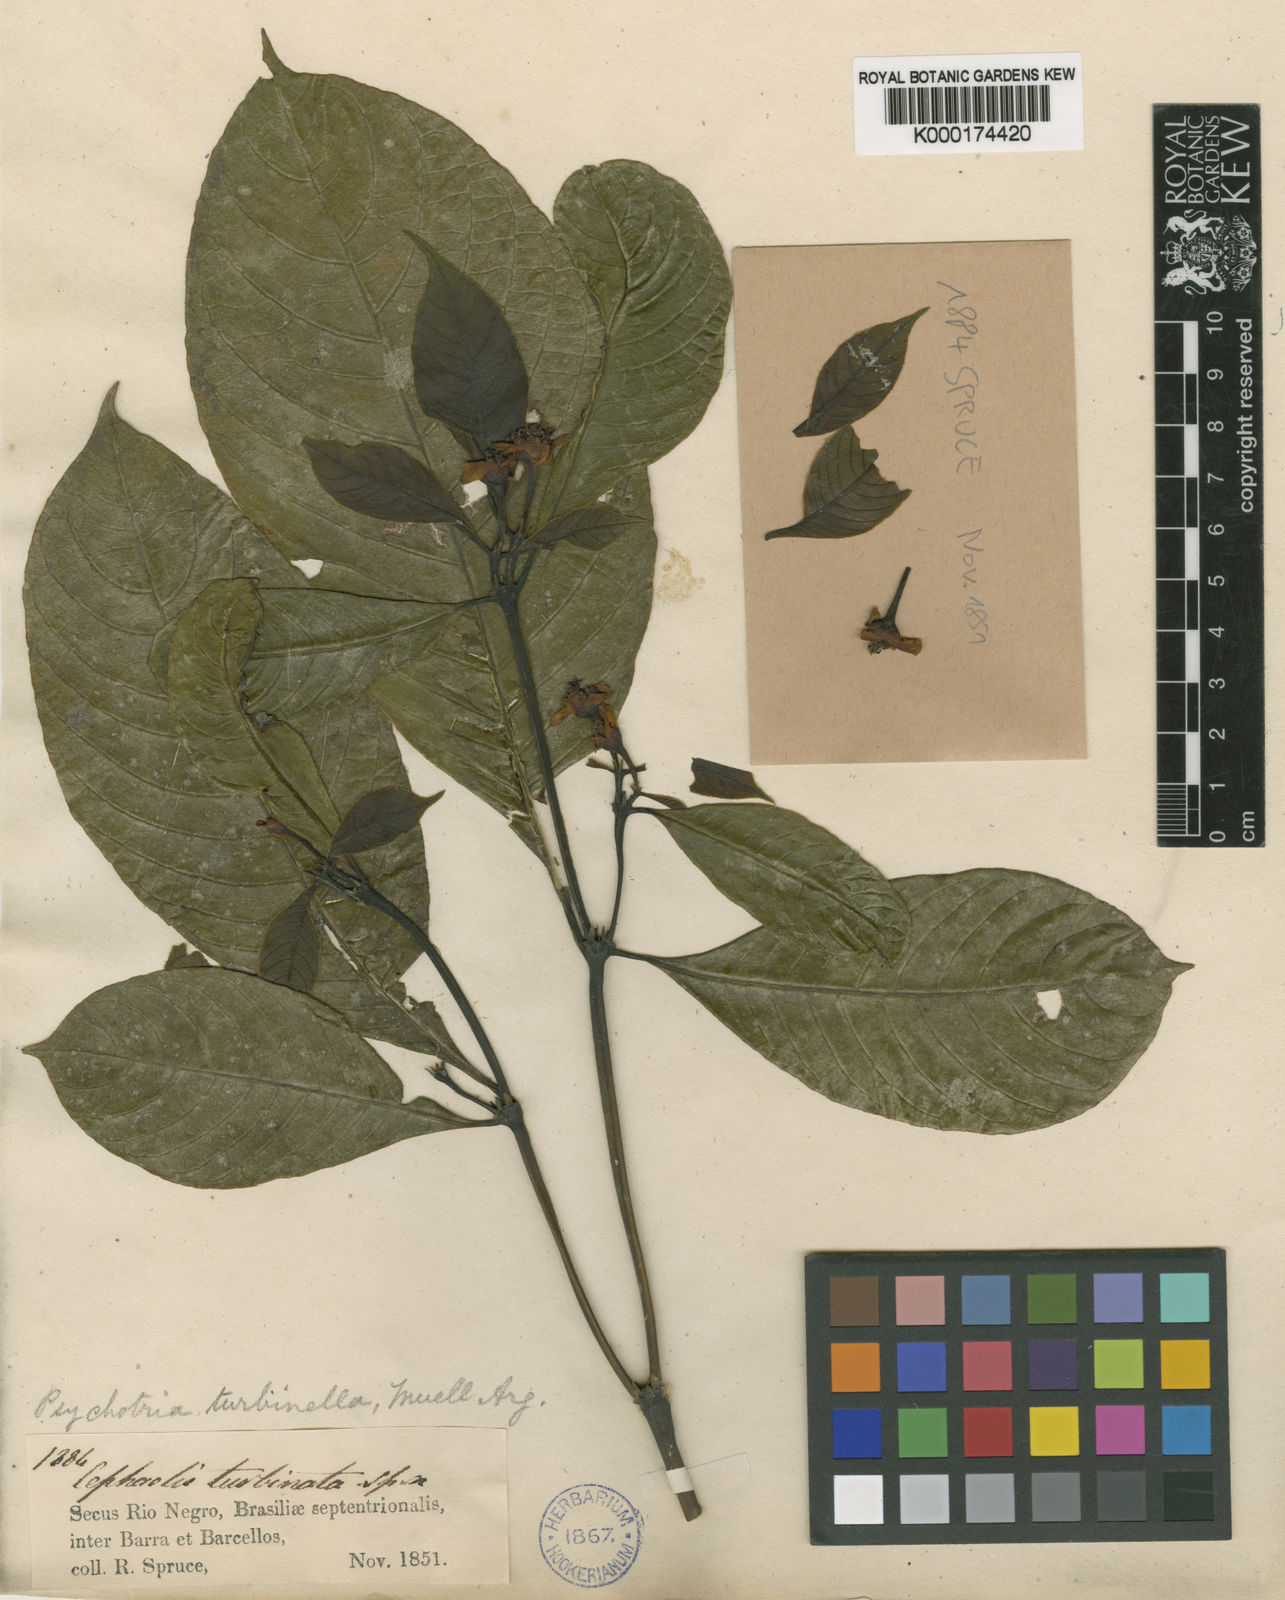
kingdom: Plantae
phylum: Tracheophyta
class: Magnoliopsida
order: Gentianales
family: Rubiaceae
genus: Psychotria
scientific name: Psychotria
